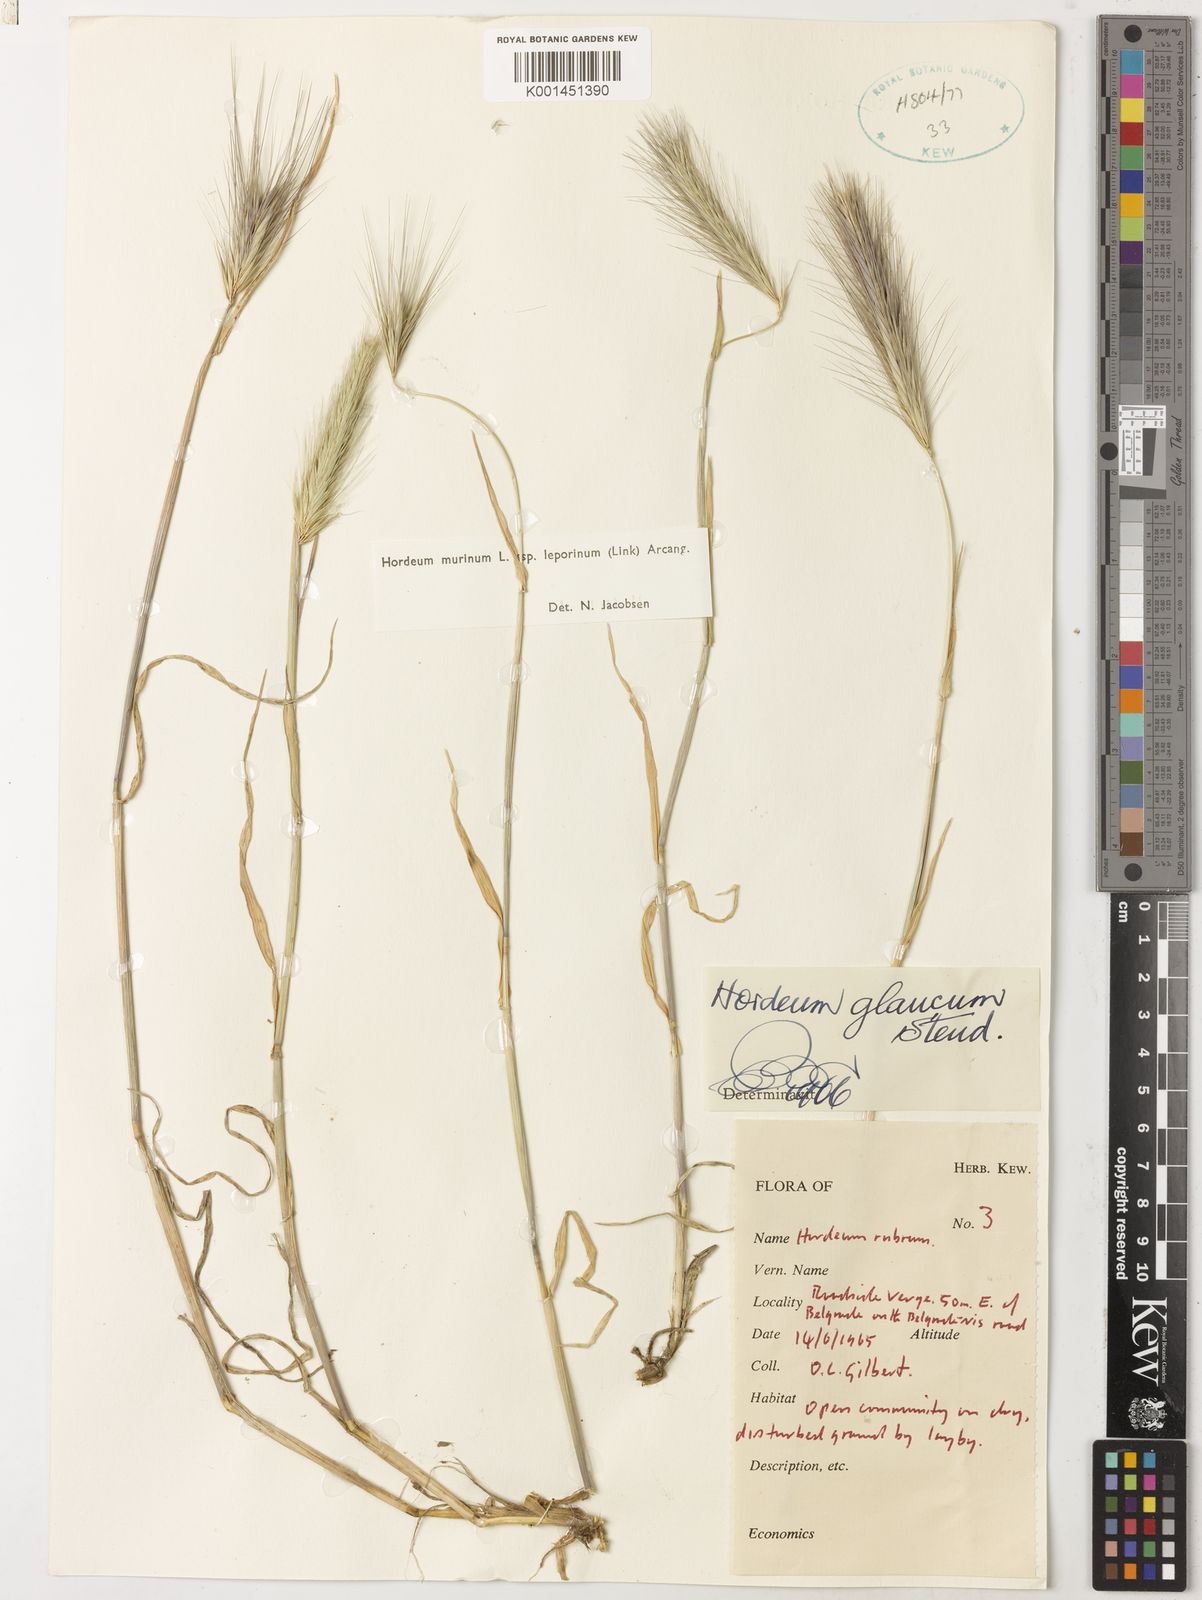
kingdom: Plantae
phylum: Tracheophyta
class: Liliopsida
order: Poales
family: Poaceae
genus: Hordeum
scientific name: Hordeum murinum
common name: Wall barley
